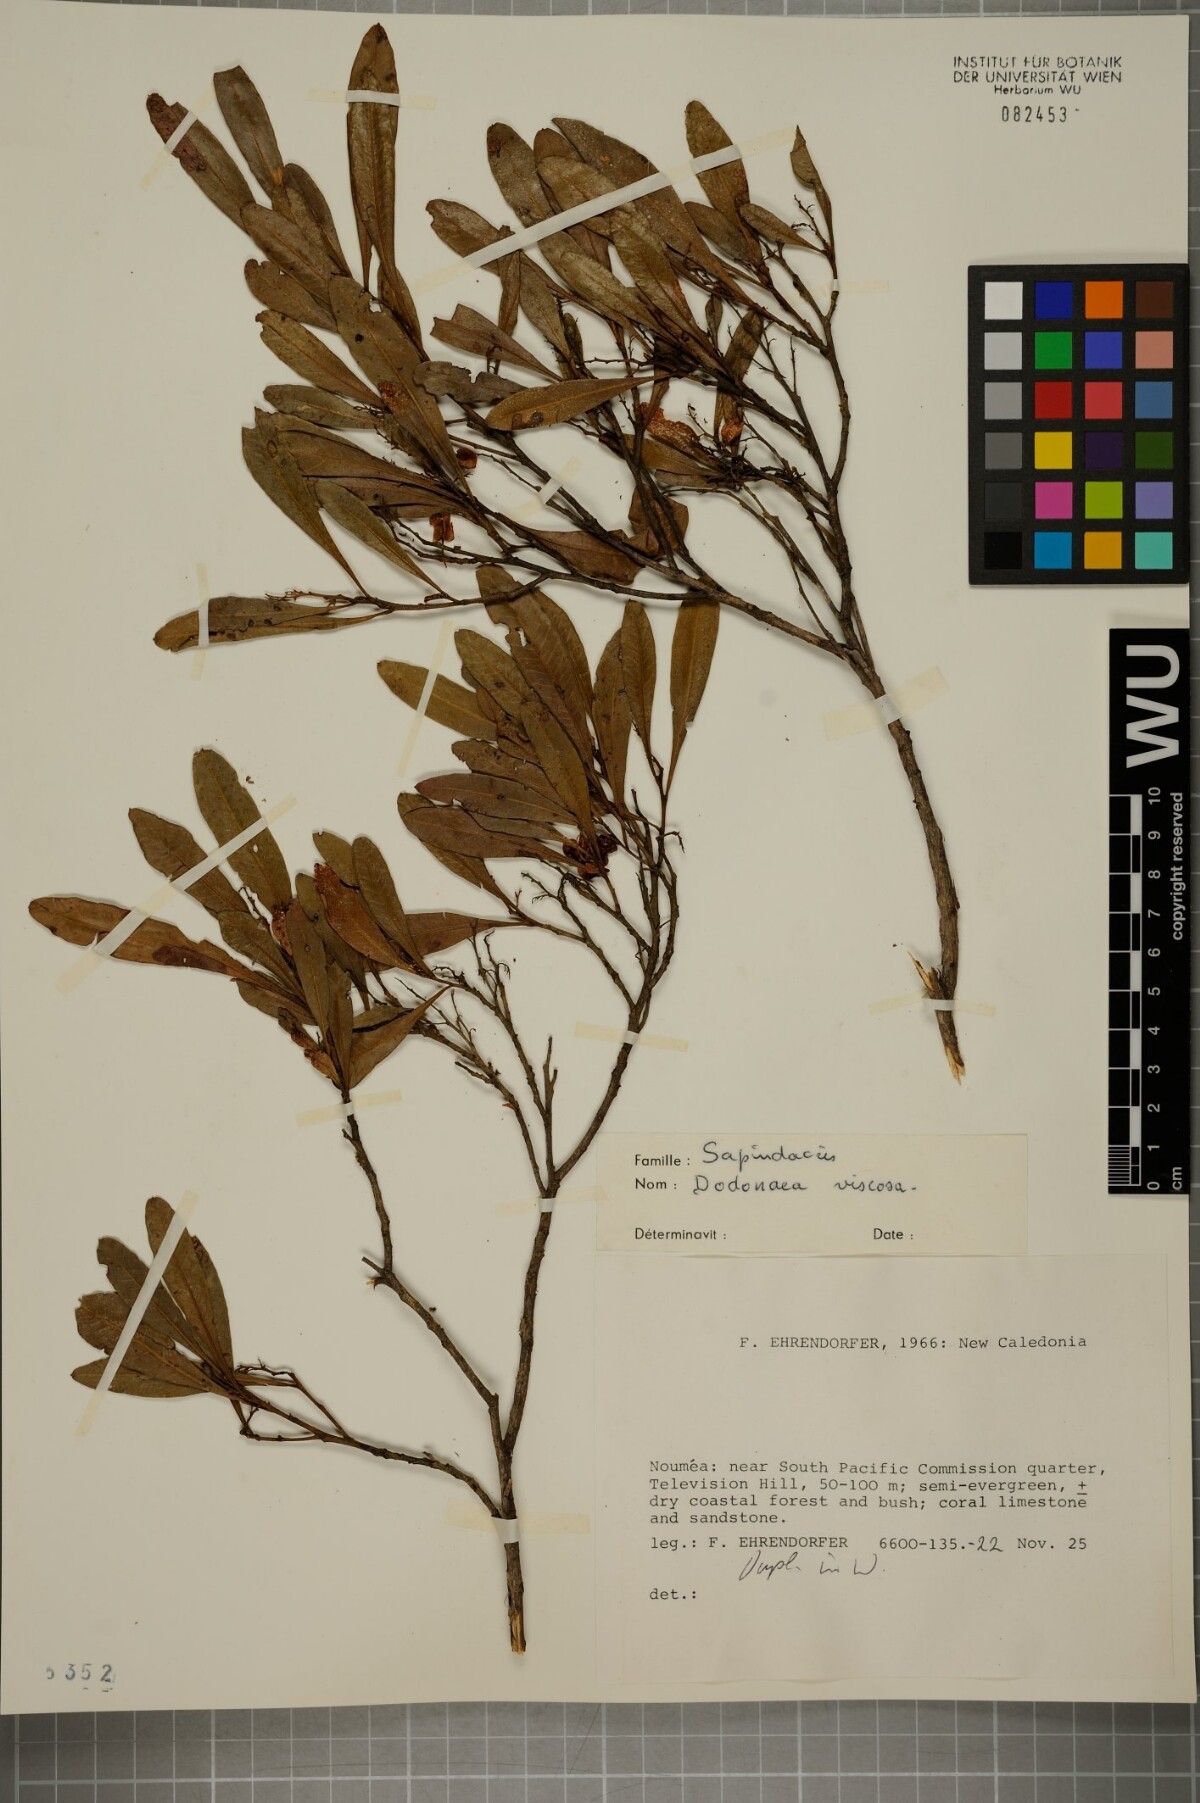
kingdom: Plantae
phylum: Tracheophyta
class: Magnoliopsida
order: Sapindales
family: Sapindaceae
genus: Dodonaea
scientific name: Dodonaea viscosa
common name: Hopbush
